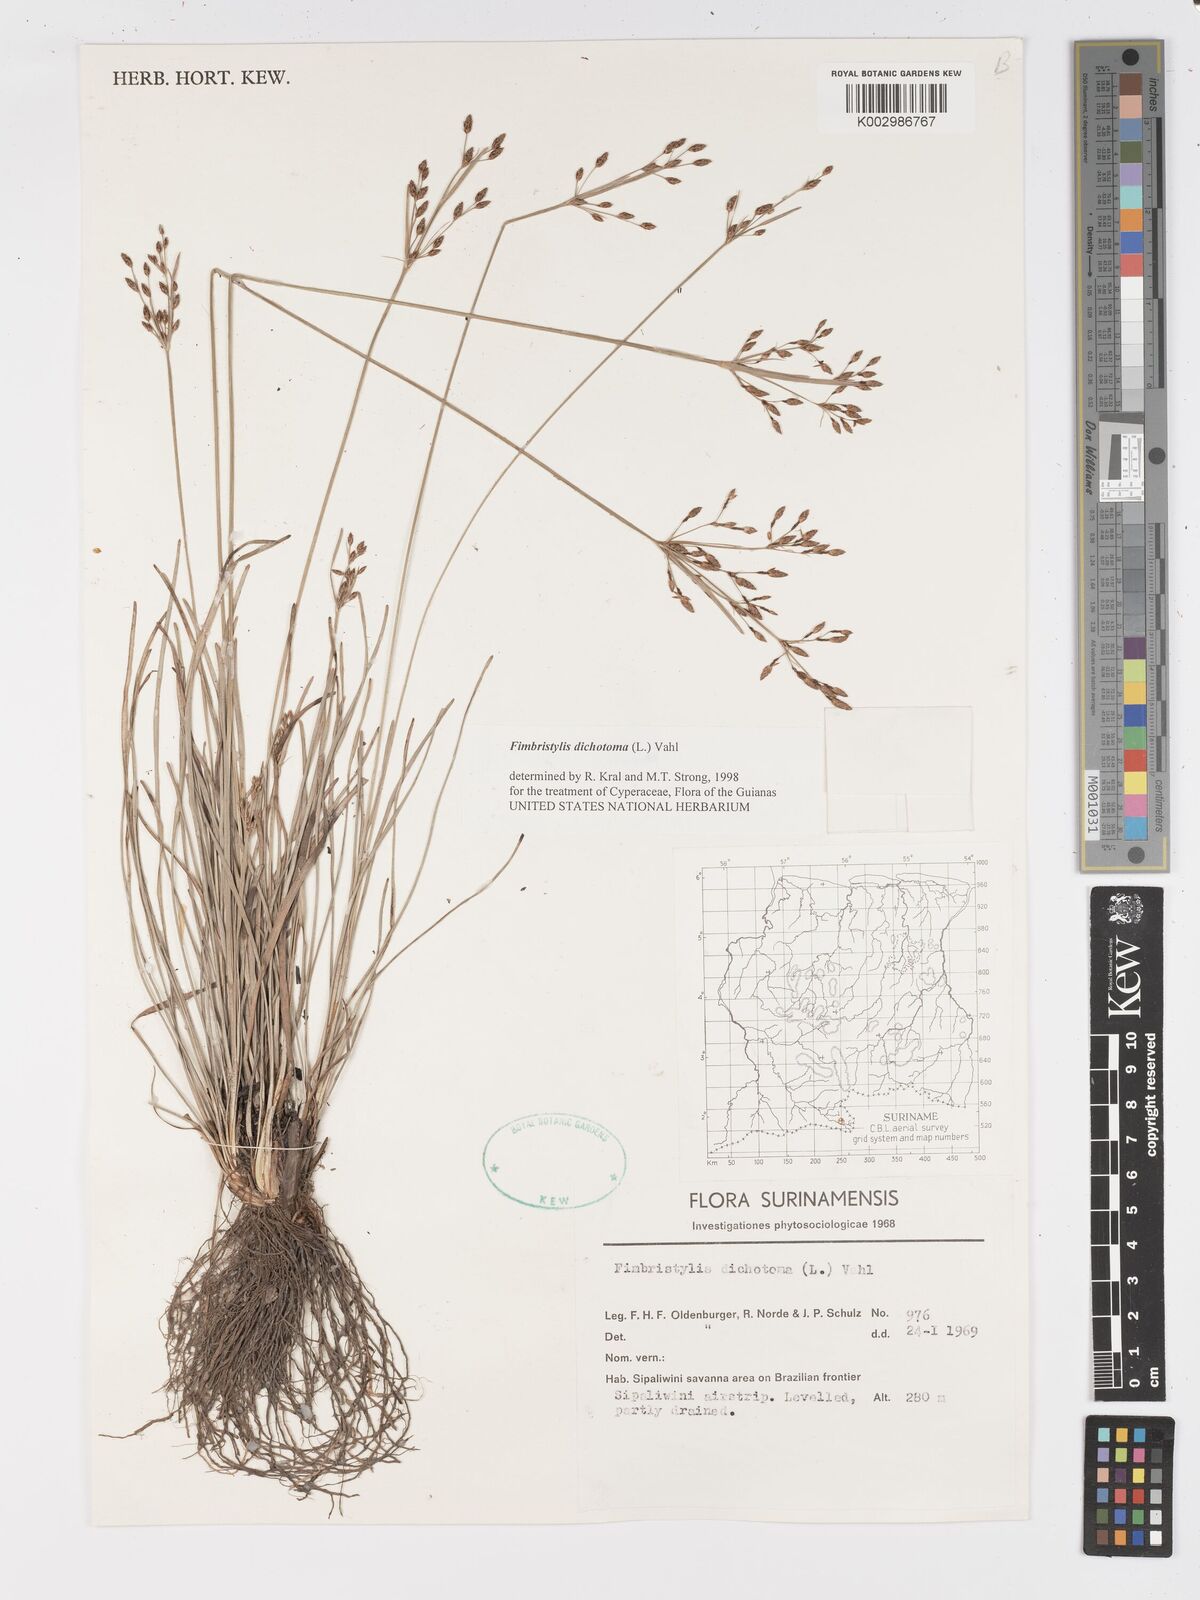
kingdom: Plantae
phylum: Tracheophyta
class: Liliopsida
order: Poales
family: Cyperaceae
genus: Fimbristylis
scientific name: Fimbristylis dichotoma
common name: Forked fimbry
